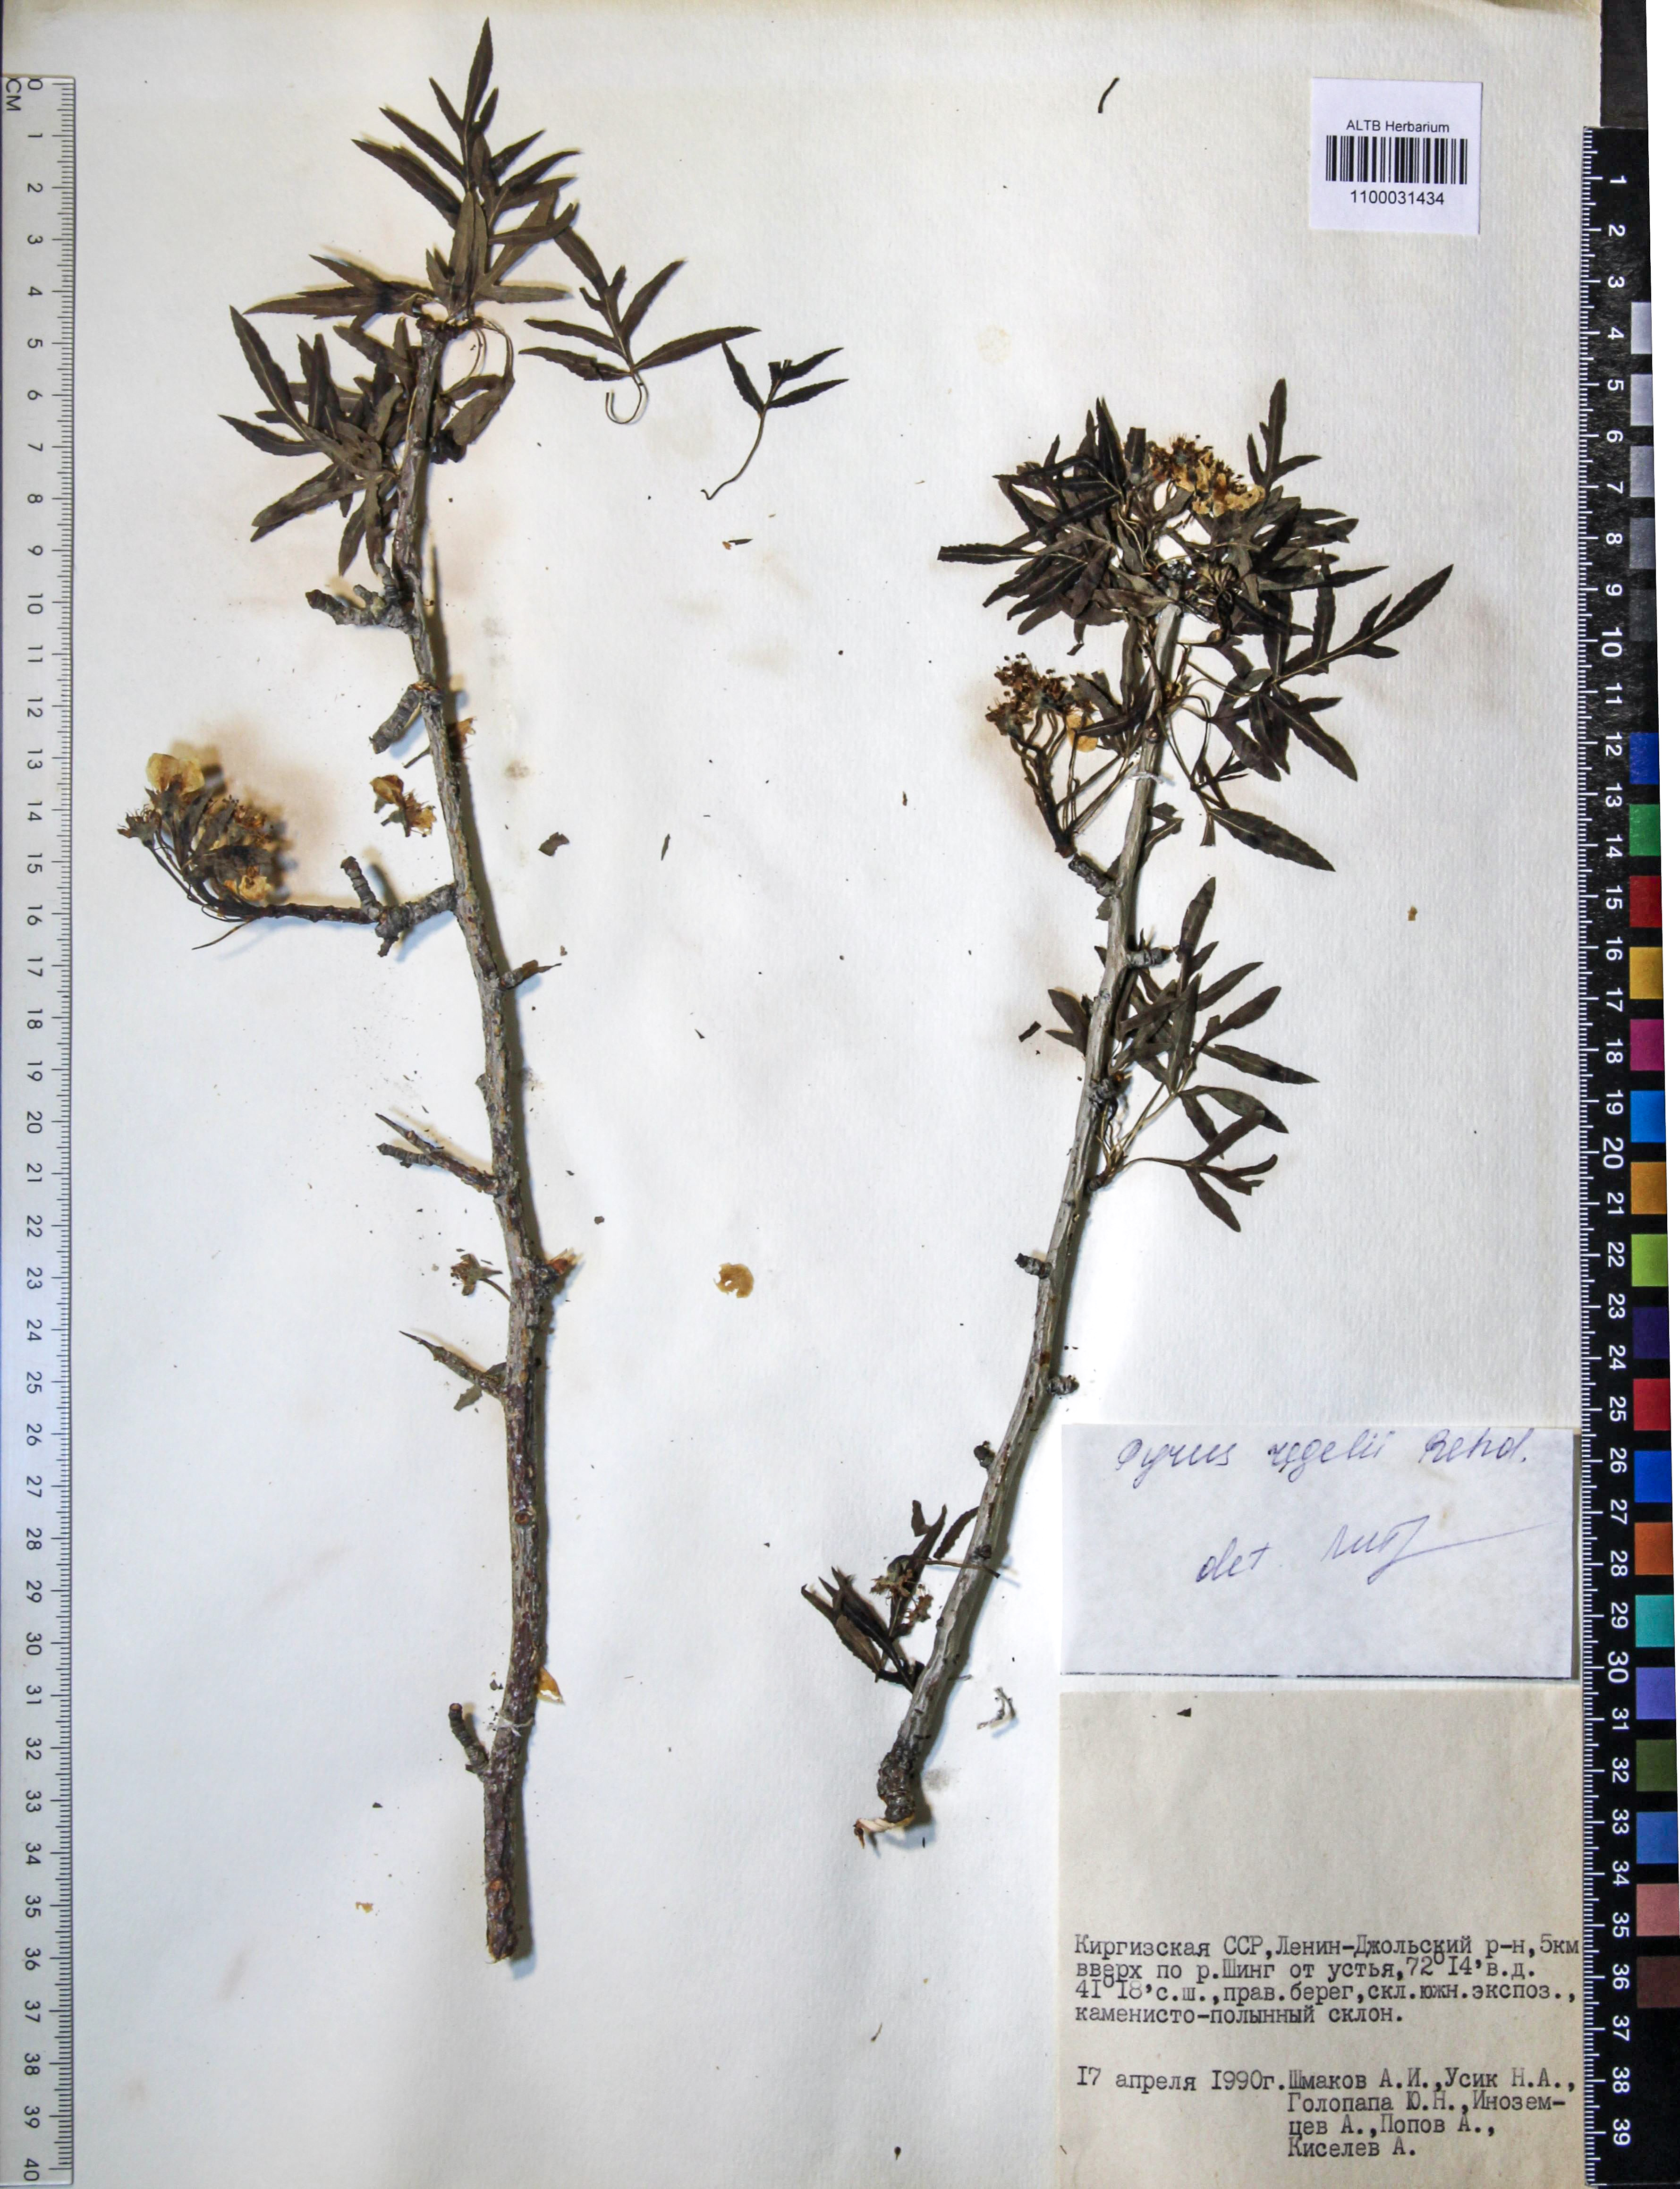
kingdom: Plantae
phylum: Tracheophyta
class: Magnoliopsida
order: Rosales
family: Rosaceae
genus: Pyrus
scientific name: Pyrus regelii
